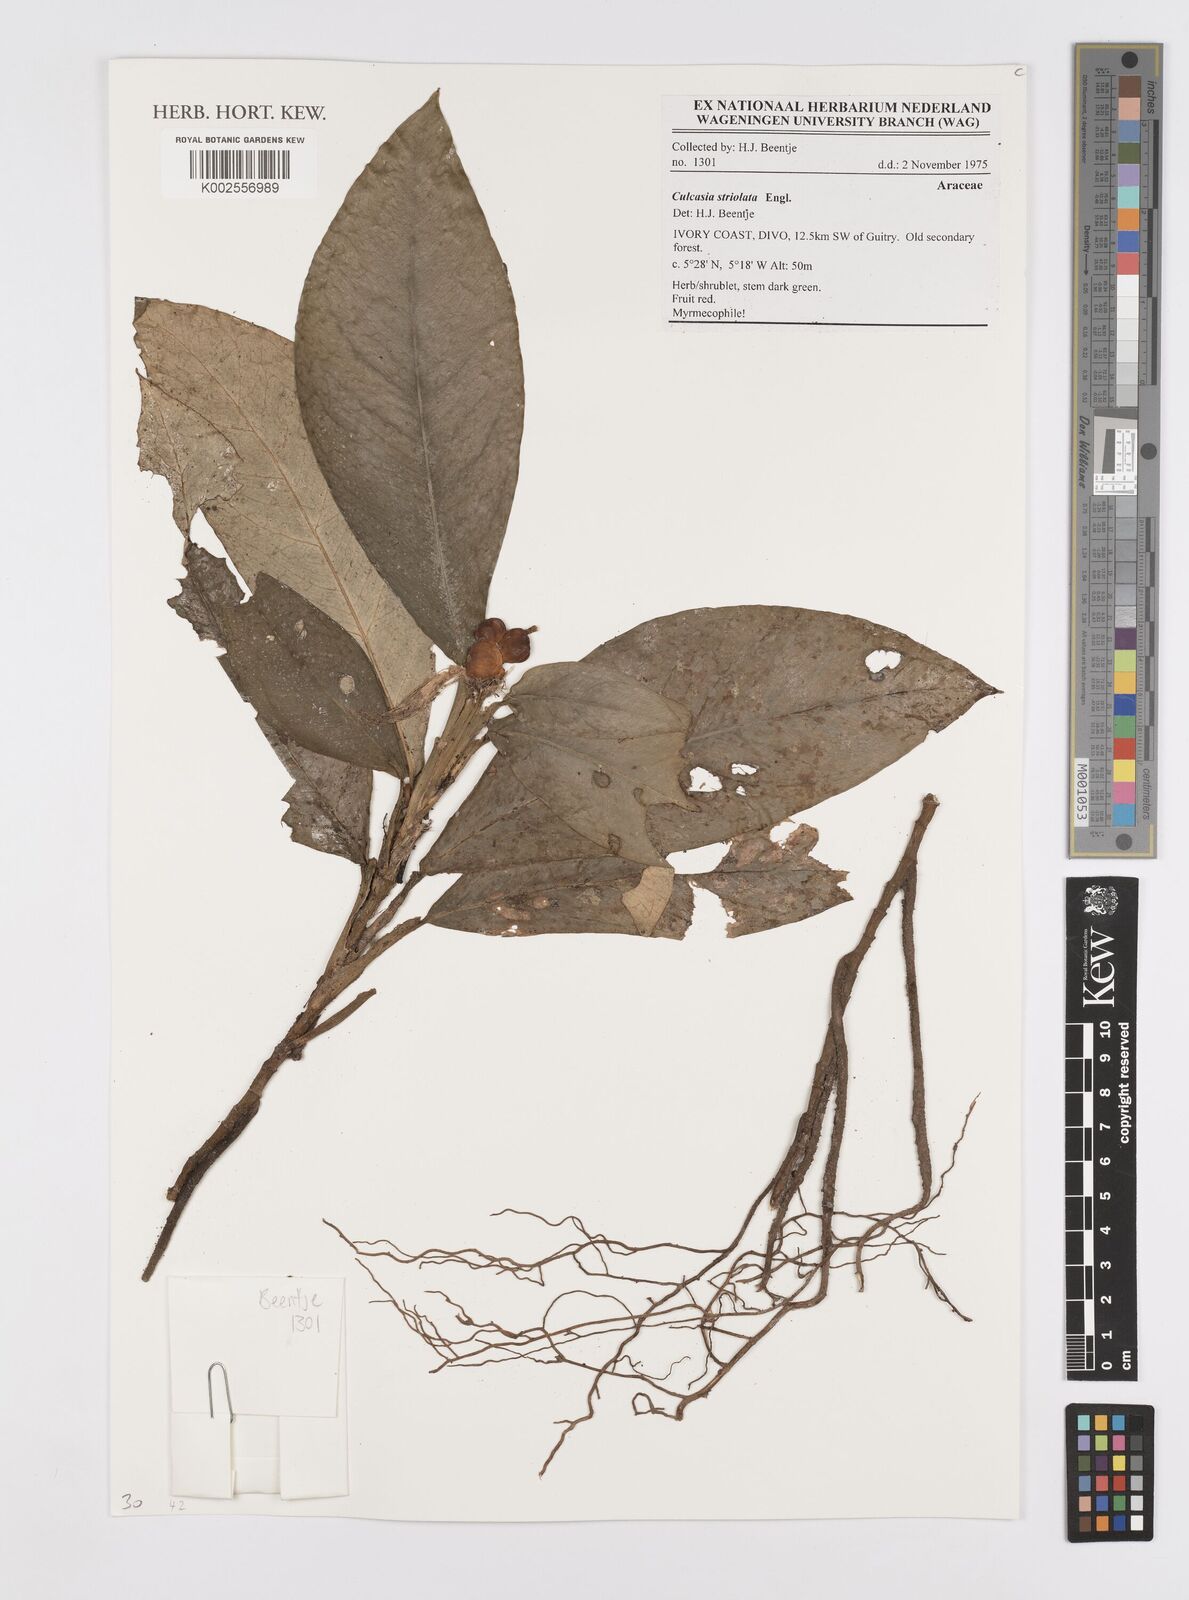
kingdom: Plantae
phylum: Tracheophyta
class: Liliopsida
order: Alismatales
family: Araceae
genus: Culcasia
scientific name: Culcasia striolata
